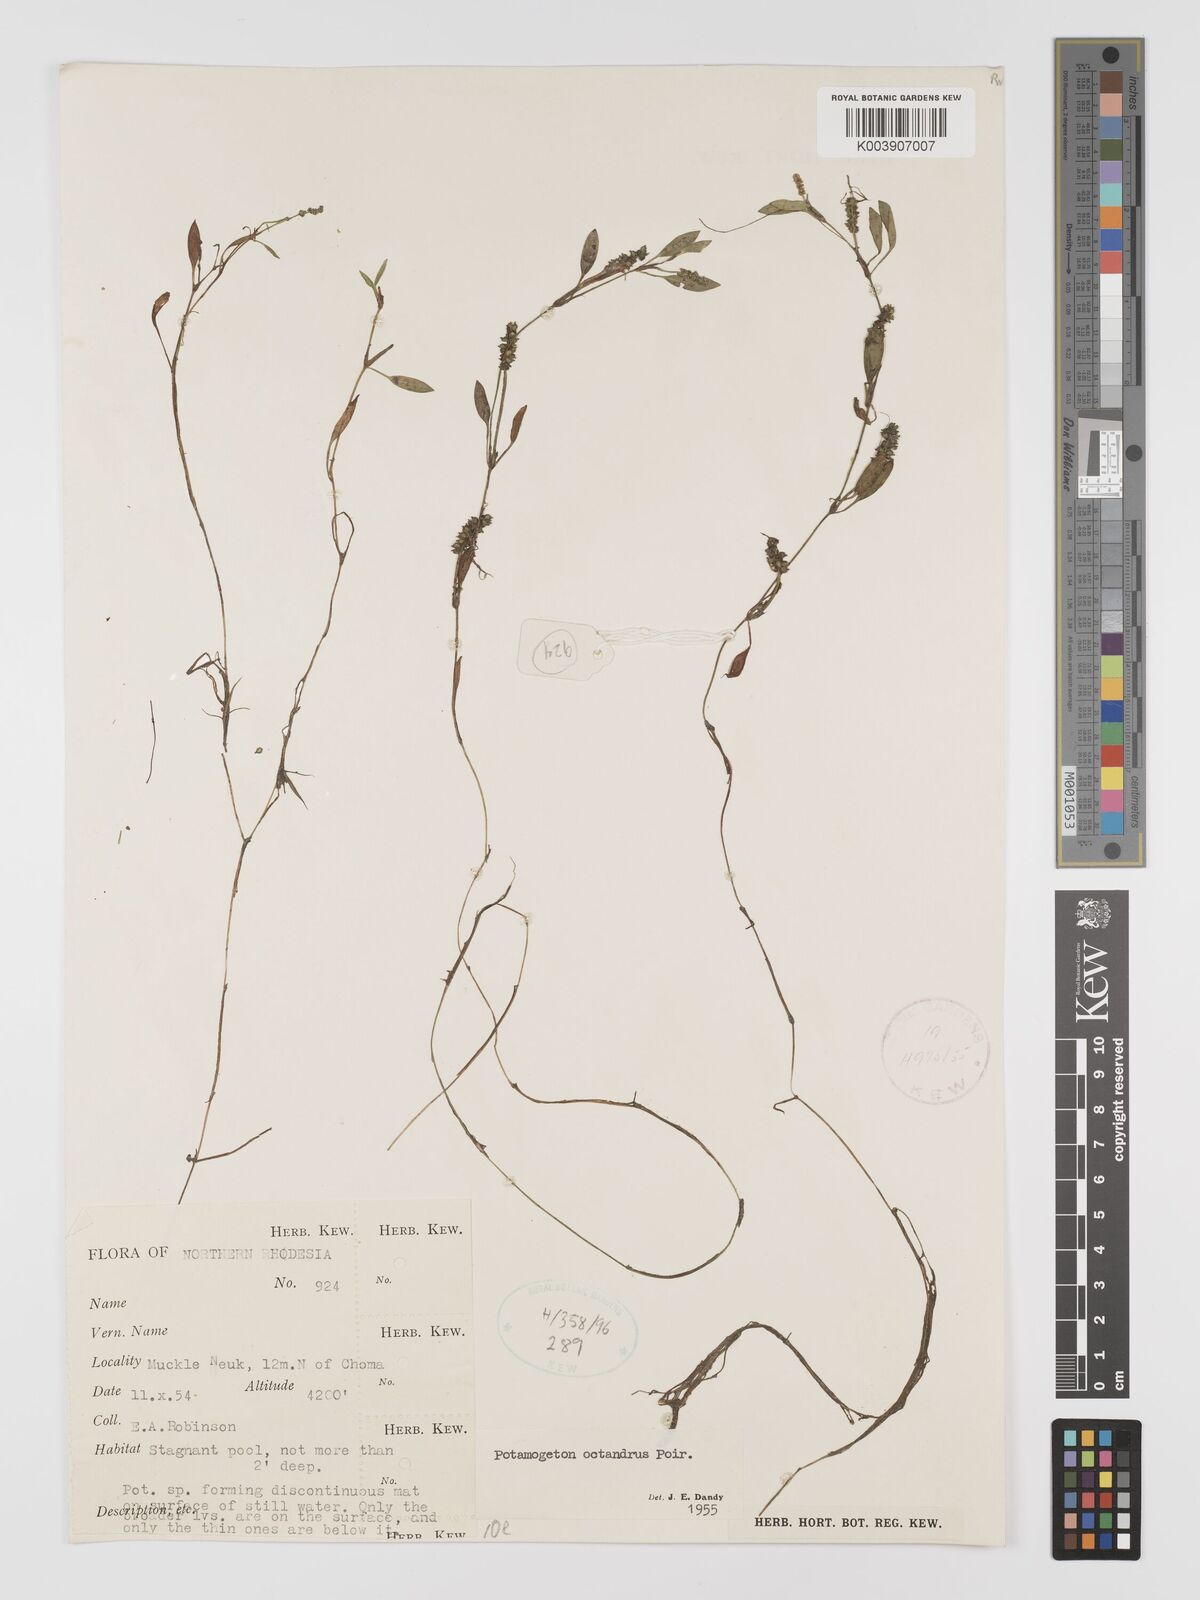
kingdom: Plantae
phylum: Tracheophyta
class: Liliopsida
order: Alismatales
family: Potamogetonaceae
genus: Potamogeton
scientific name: Potamogeton octandrus
